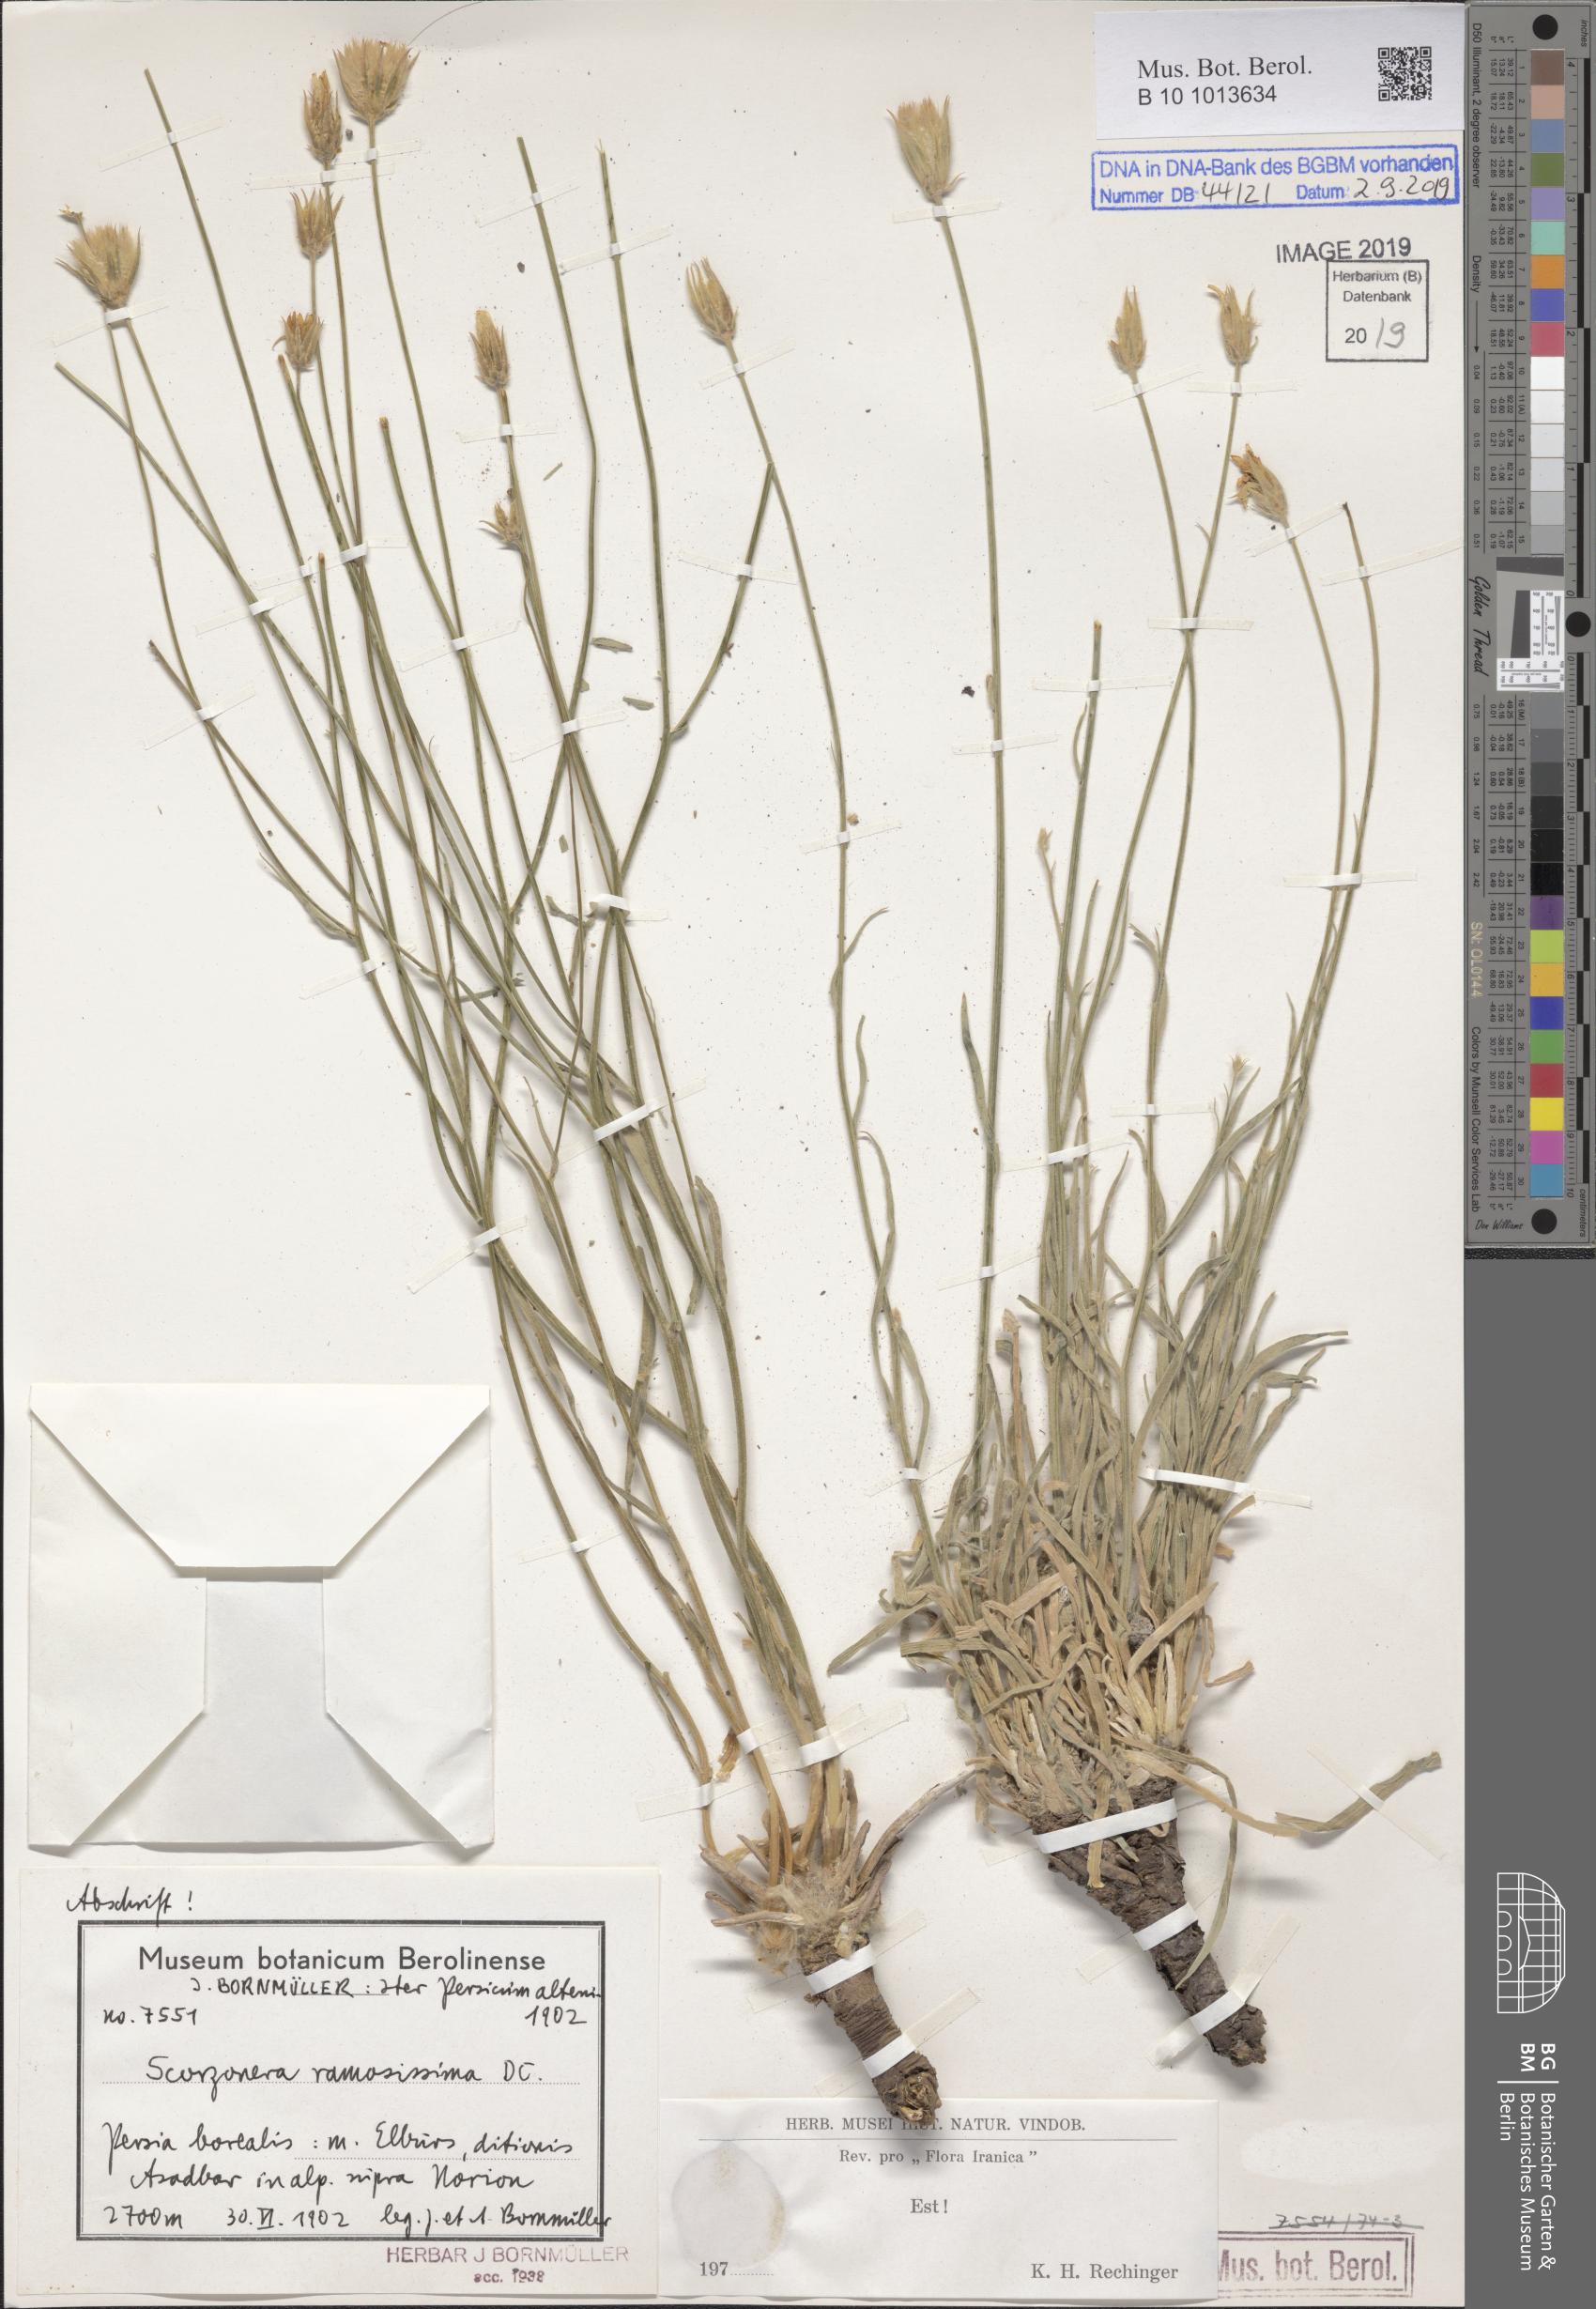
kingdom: Plantae
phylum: Tracheophyta
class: Magnoliopsida
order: Asterales
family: Asteraceae
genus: Gelasia
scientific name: Gelasia ramosissima
